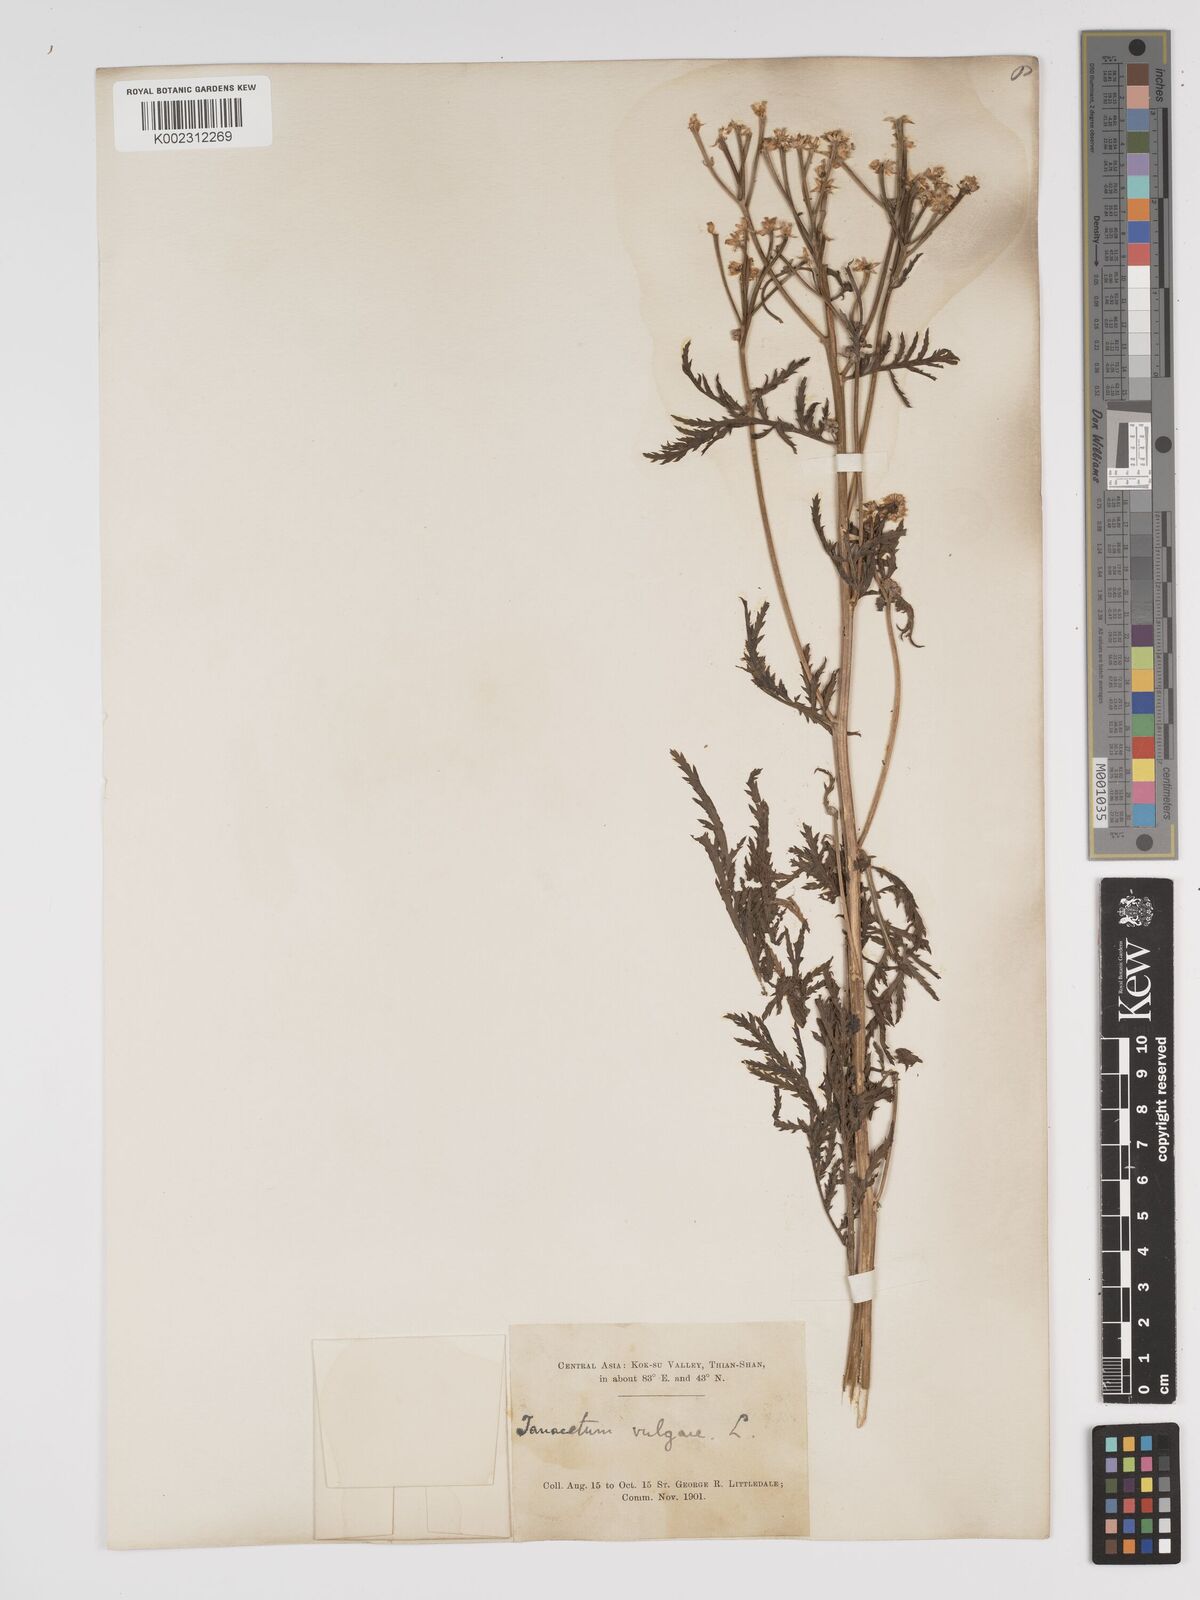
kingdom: Plantae
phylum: Tracheophyta
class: Magnoliopsida
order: Asterales
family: Asteraceae
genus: Tanacetum
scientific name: Tanacetum vulgare
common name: Common tansy
